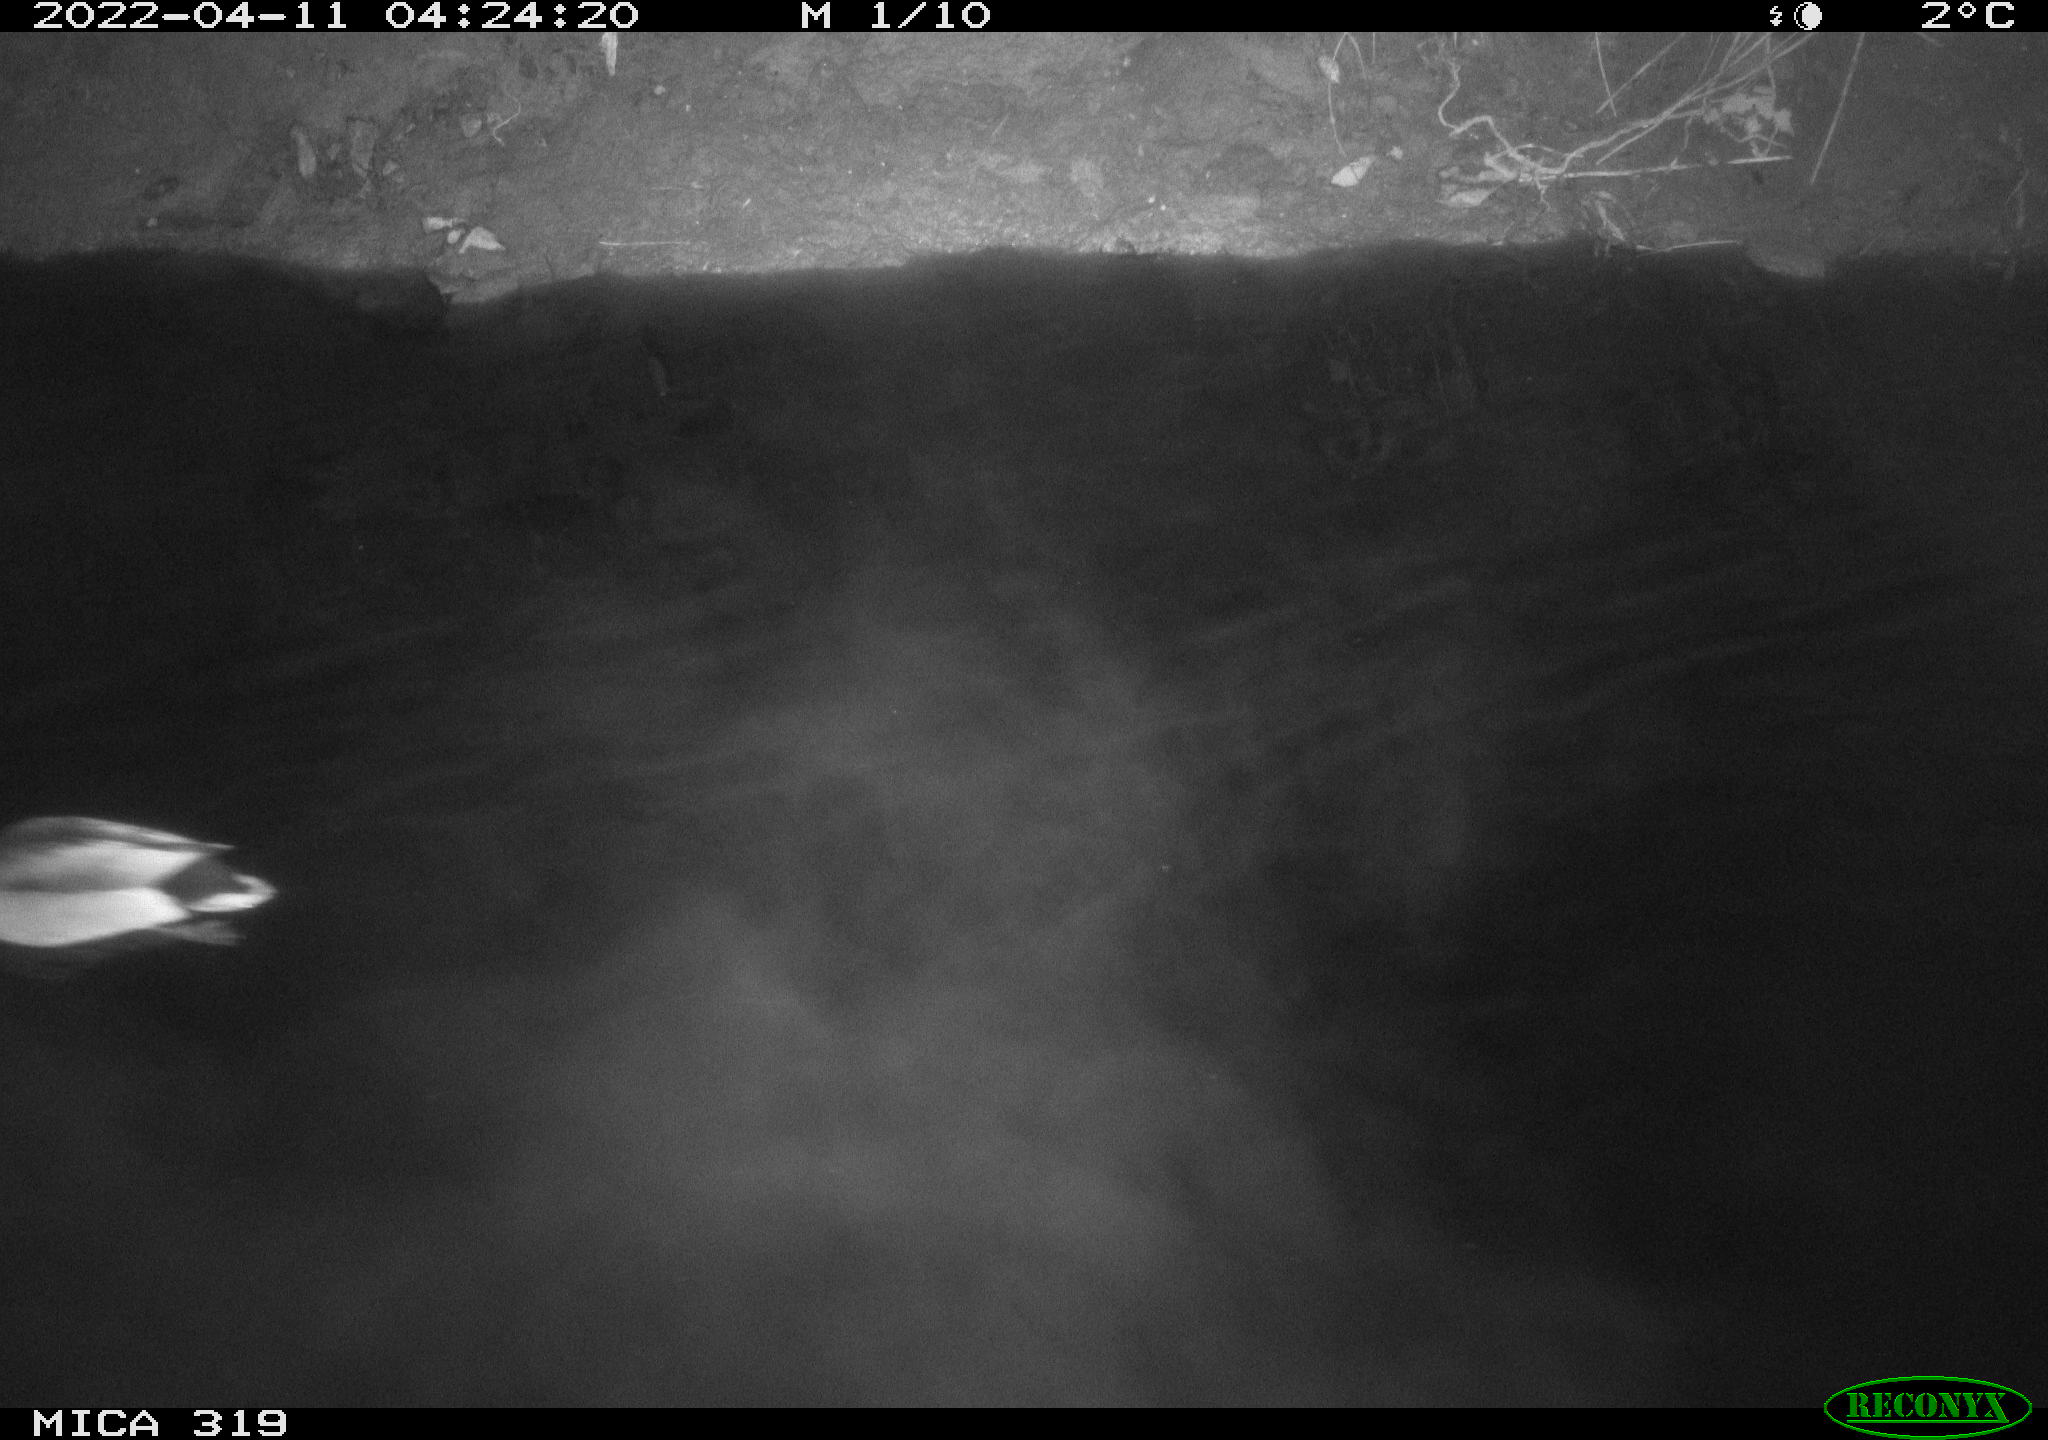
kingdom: Animalia
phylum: Chordata
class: Aves
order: Anseriformes
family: Anatidae
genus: Anas
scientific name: Anas platyrhynchos
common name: Mallard
